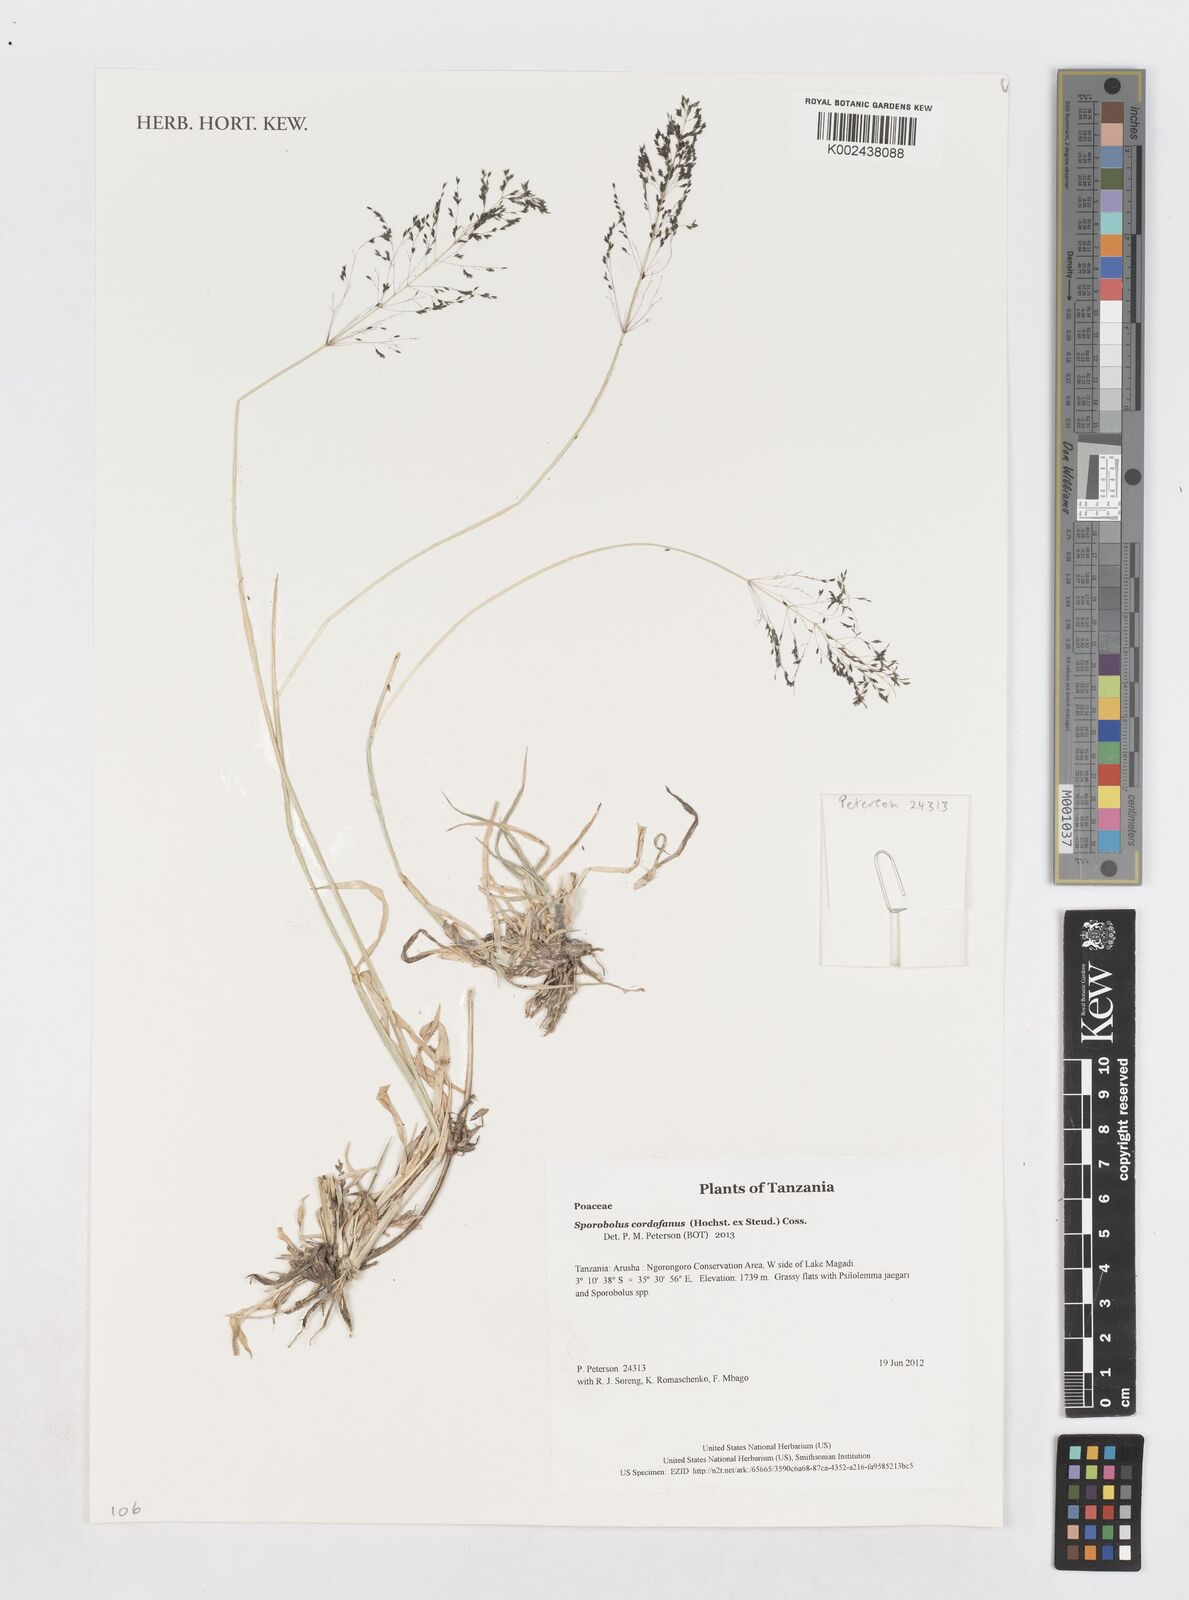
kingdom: Plantae
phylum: Tracheophyta
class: Liliopsida
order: Poales
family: Poaceae
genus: Sporobolus
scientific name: Sporobolus cordofanus
